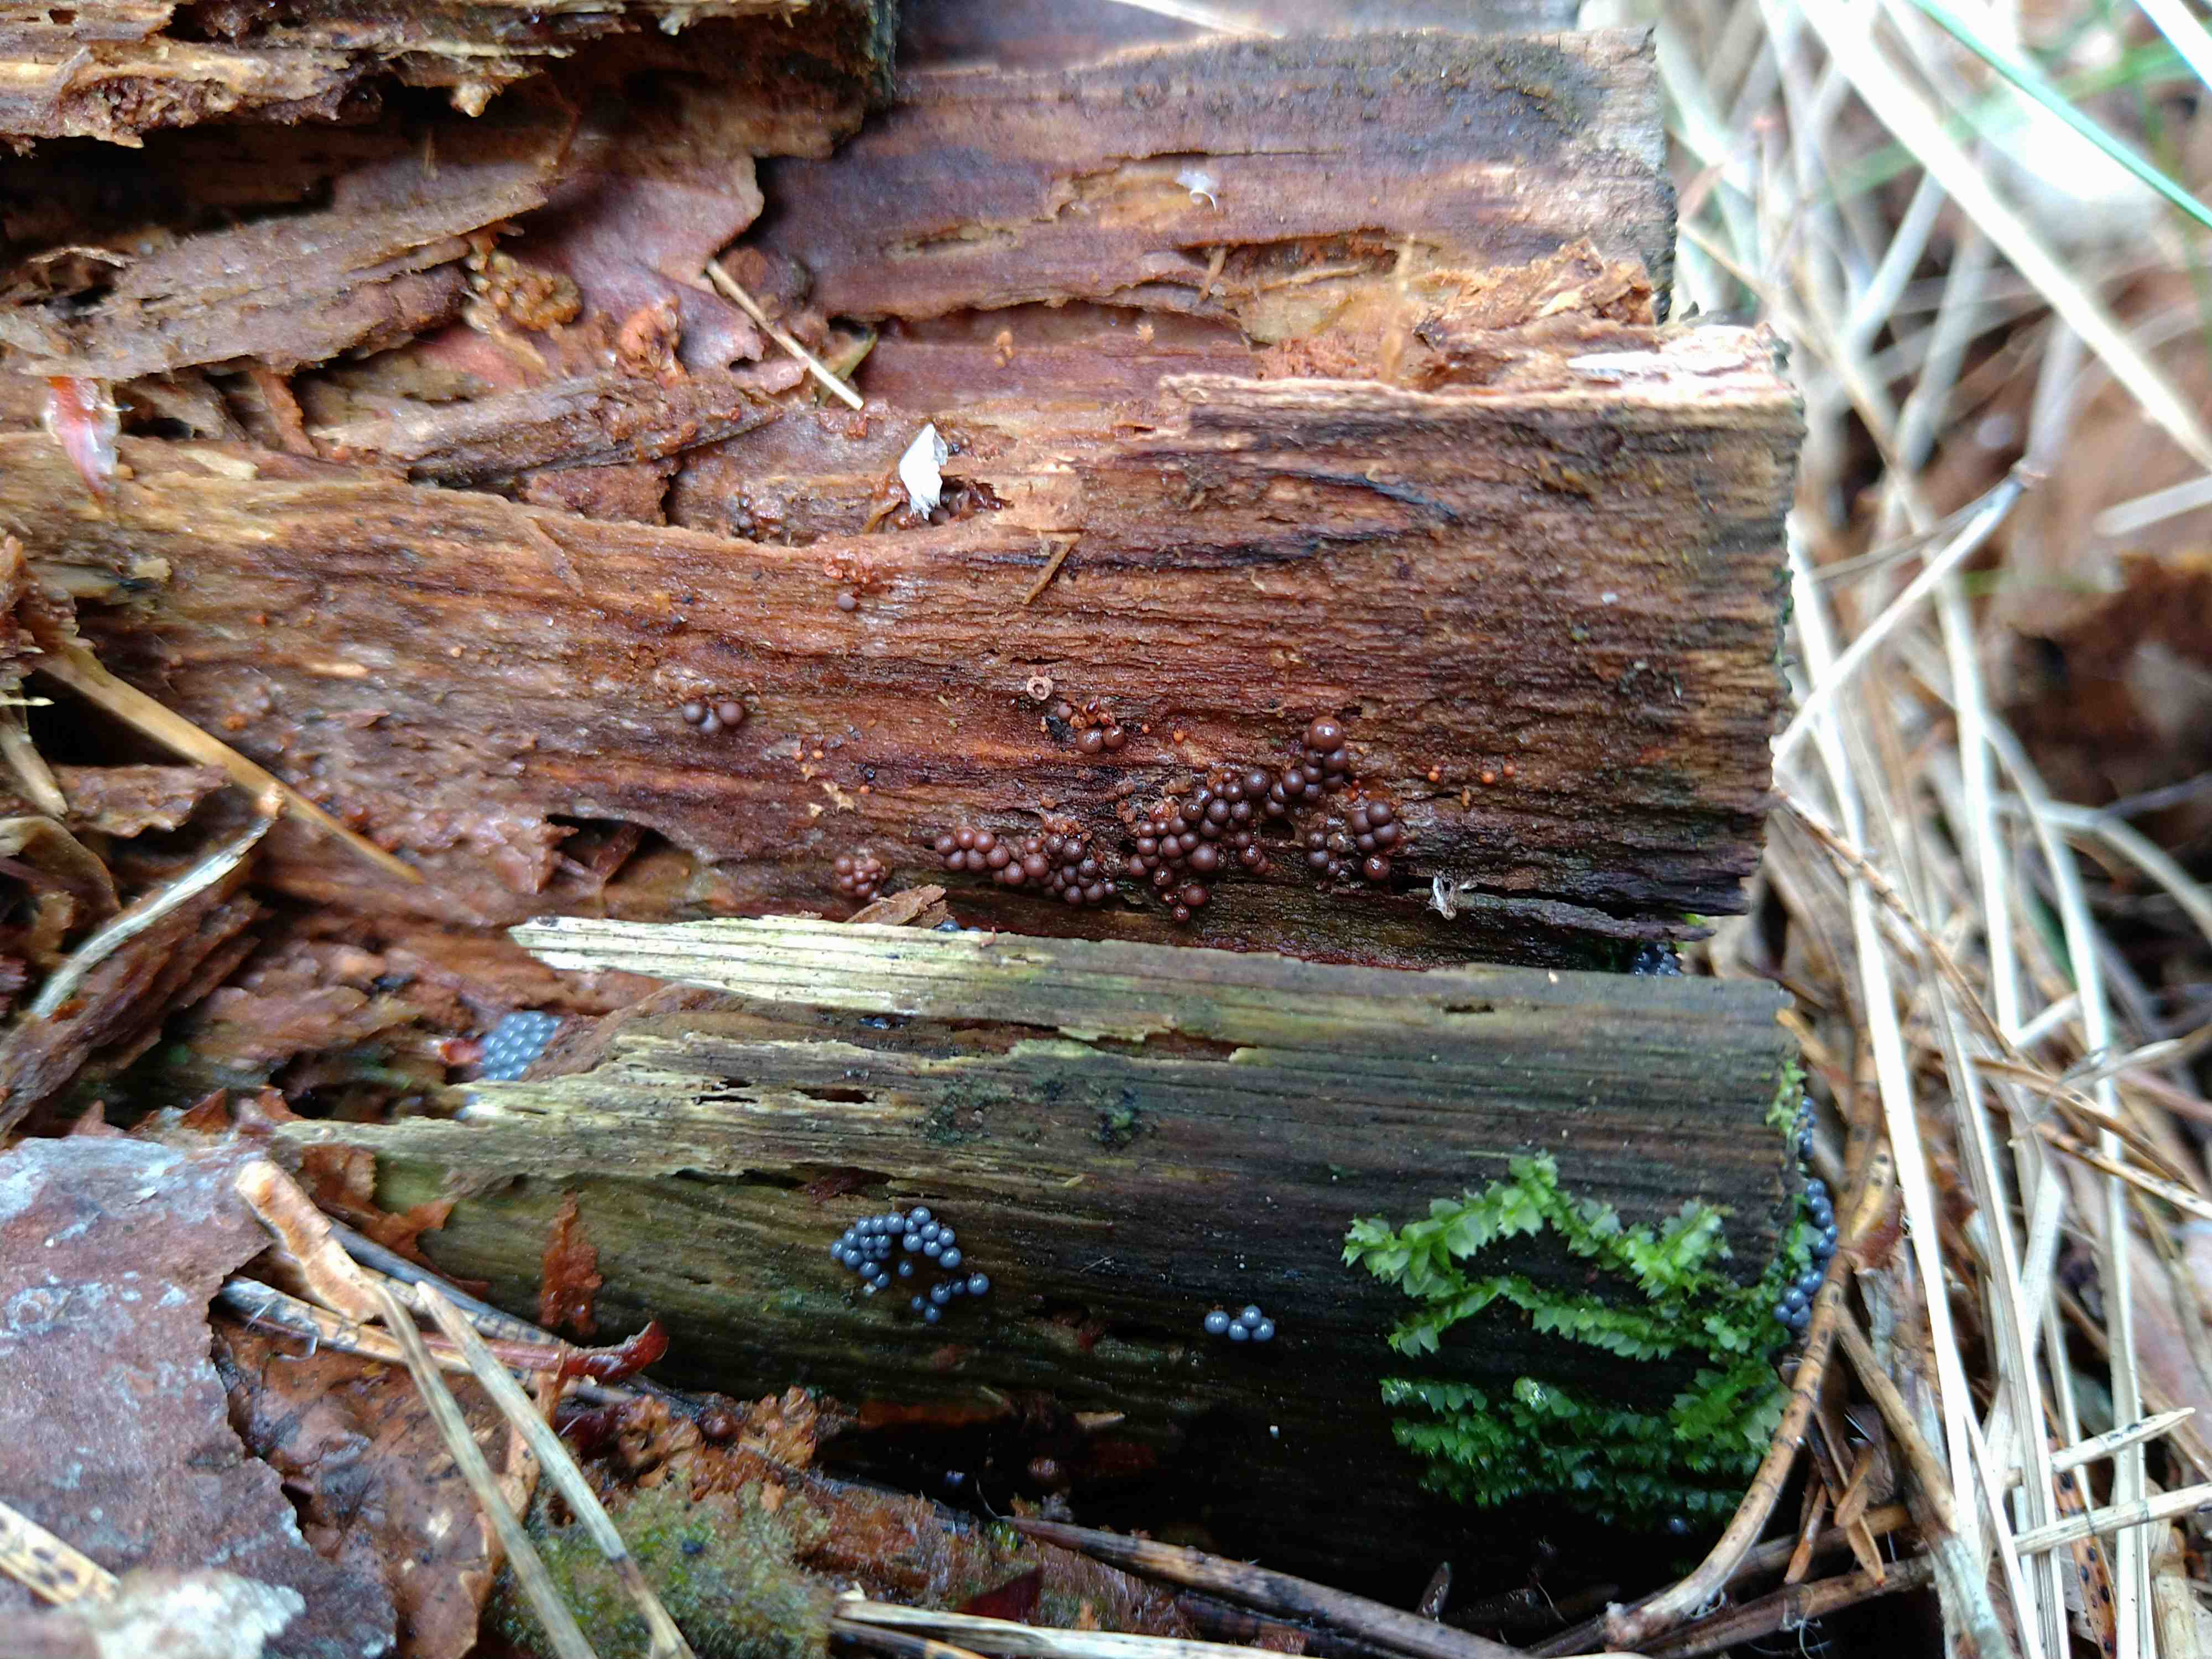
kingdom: Protozoa
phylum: Mycetozoa
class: Myxomycetes
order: Cribrariales
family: Cribrariaceae
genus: Cribraria
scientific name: Cribraria
